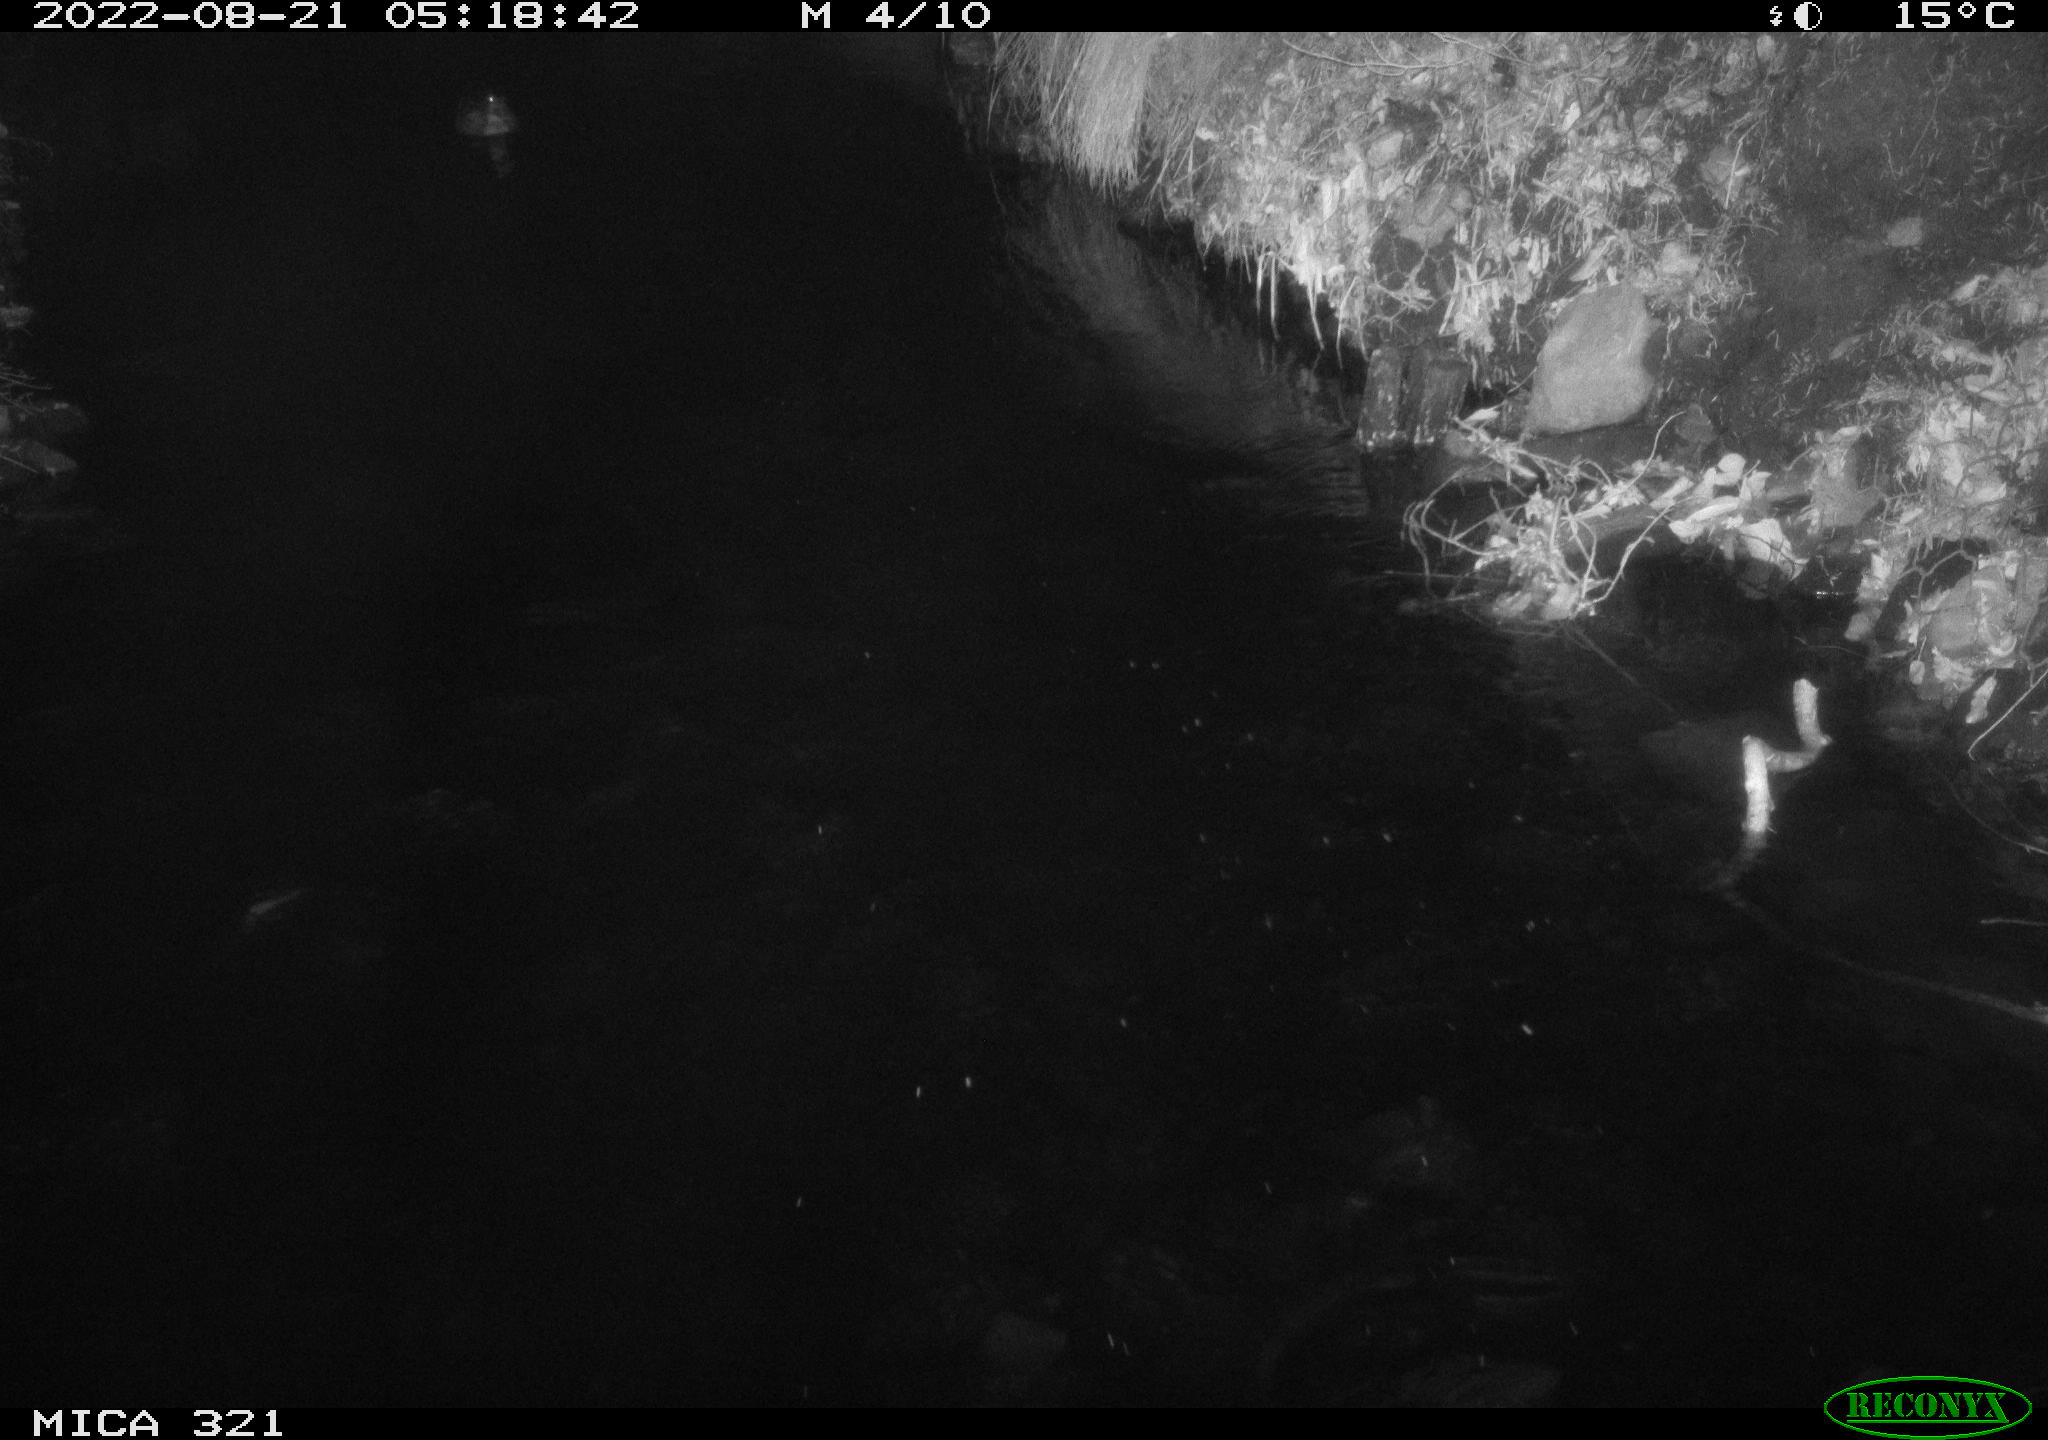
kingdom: Animalia
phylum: Chordata
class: Aves
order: Anseriformes
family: Anatidae
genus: Anas
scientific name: Anas platyrhynchos
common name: Mallard
